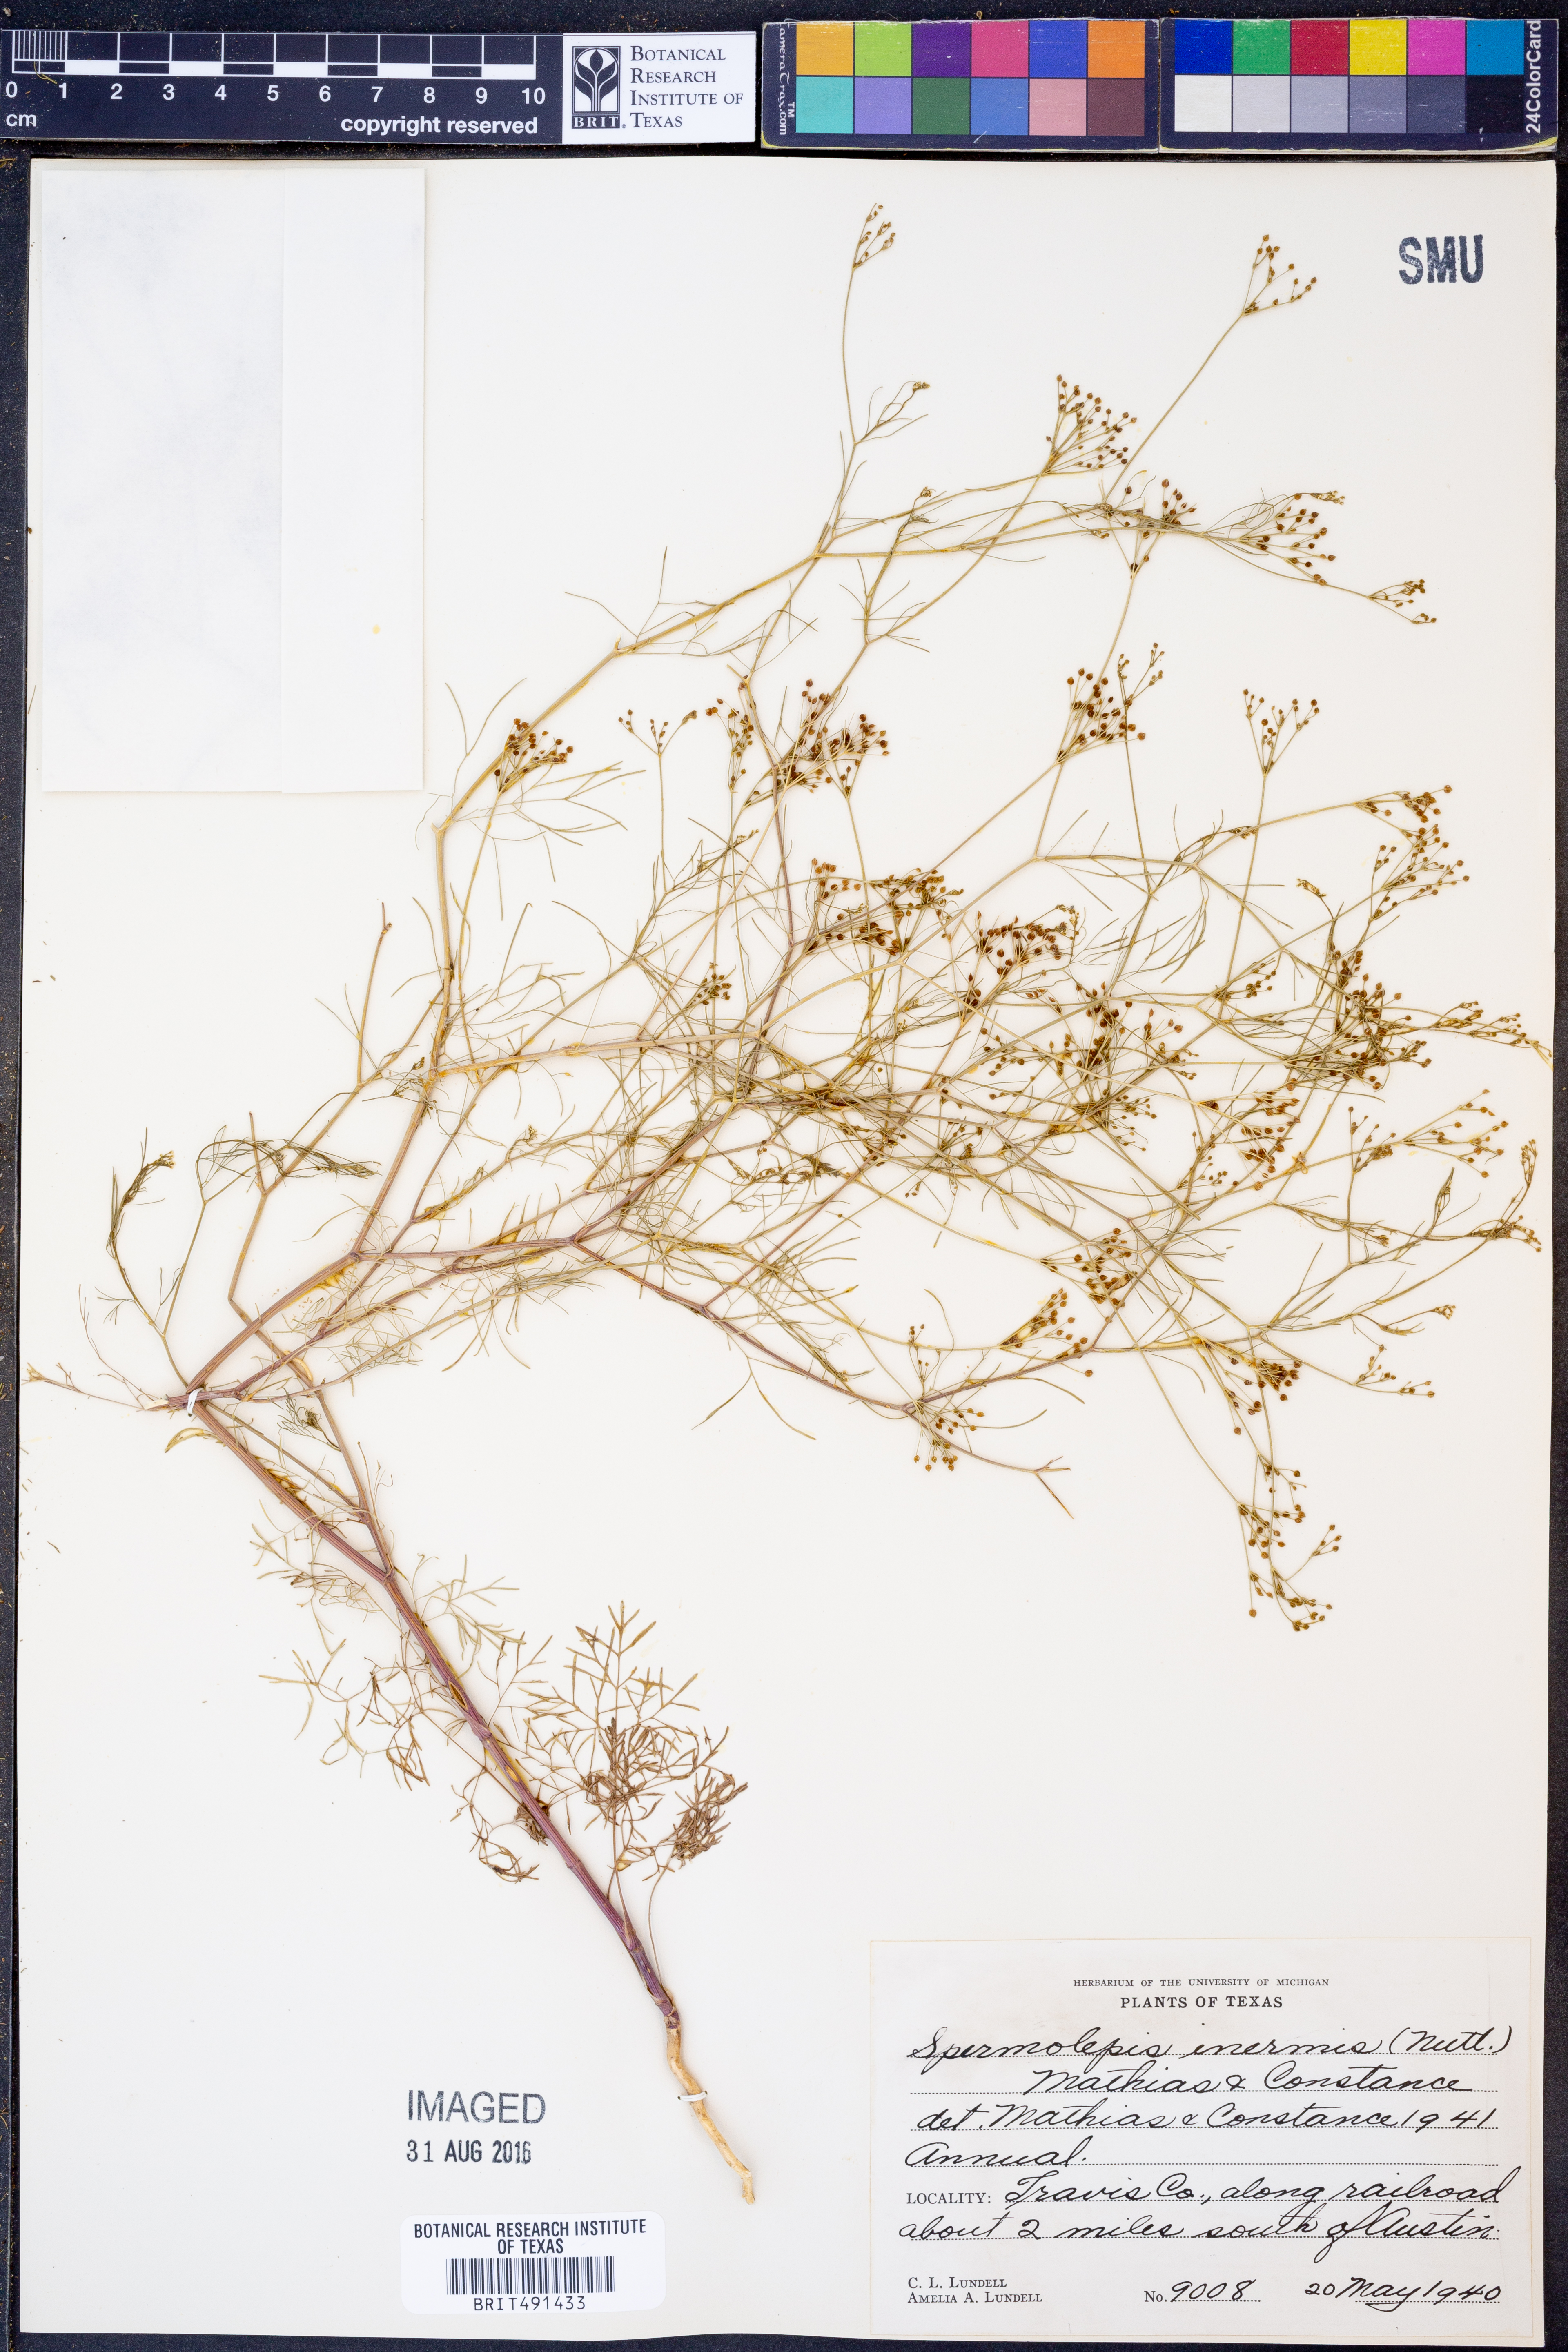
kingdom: Plantae
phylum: Tracheophyta
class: Magnoliopsida
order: Apiales
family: Apiaceae
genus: Spermolepis
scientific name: Spermolepis inermis
